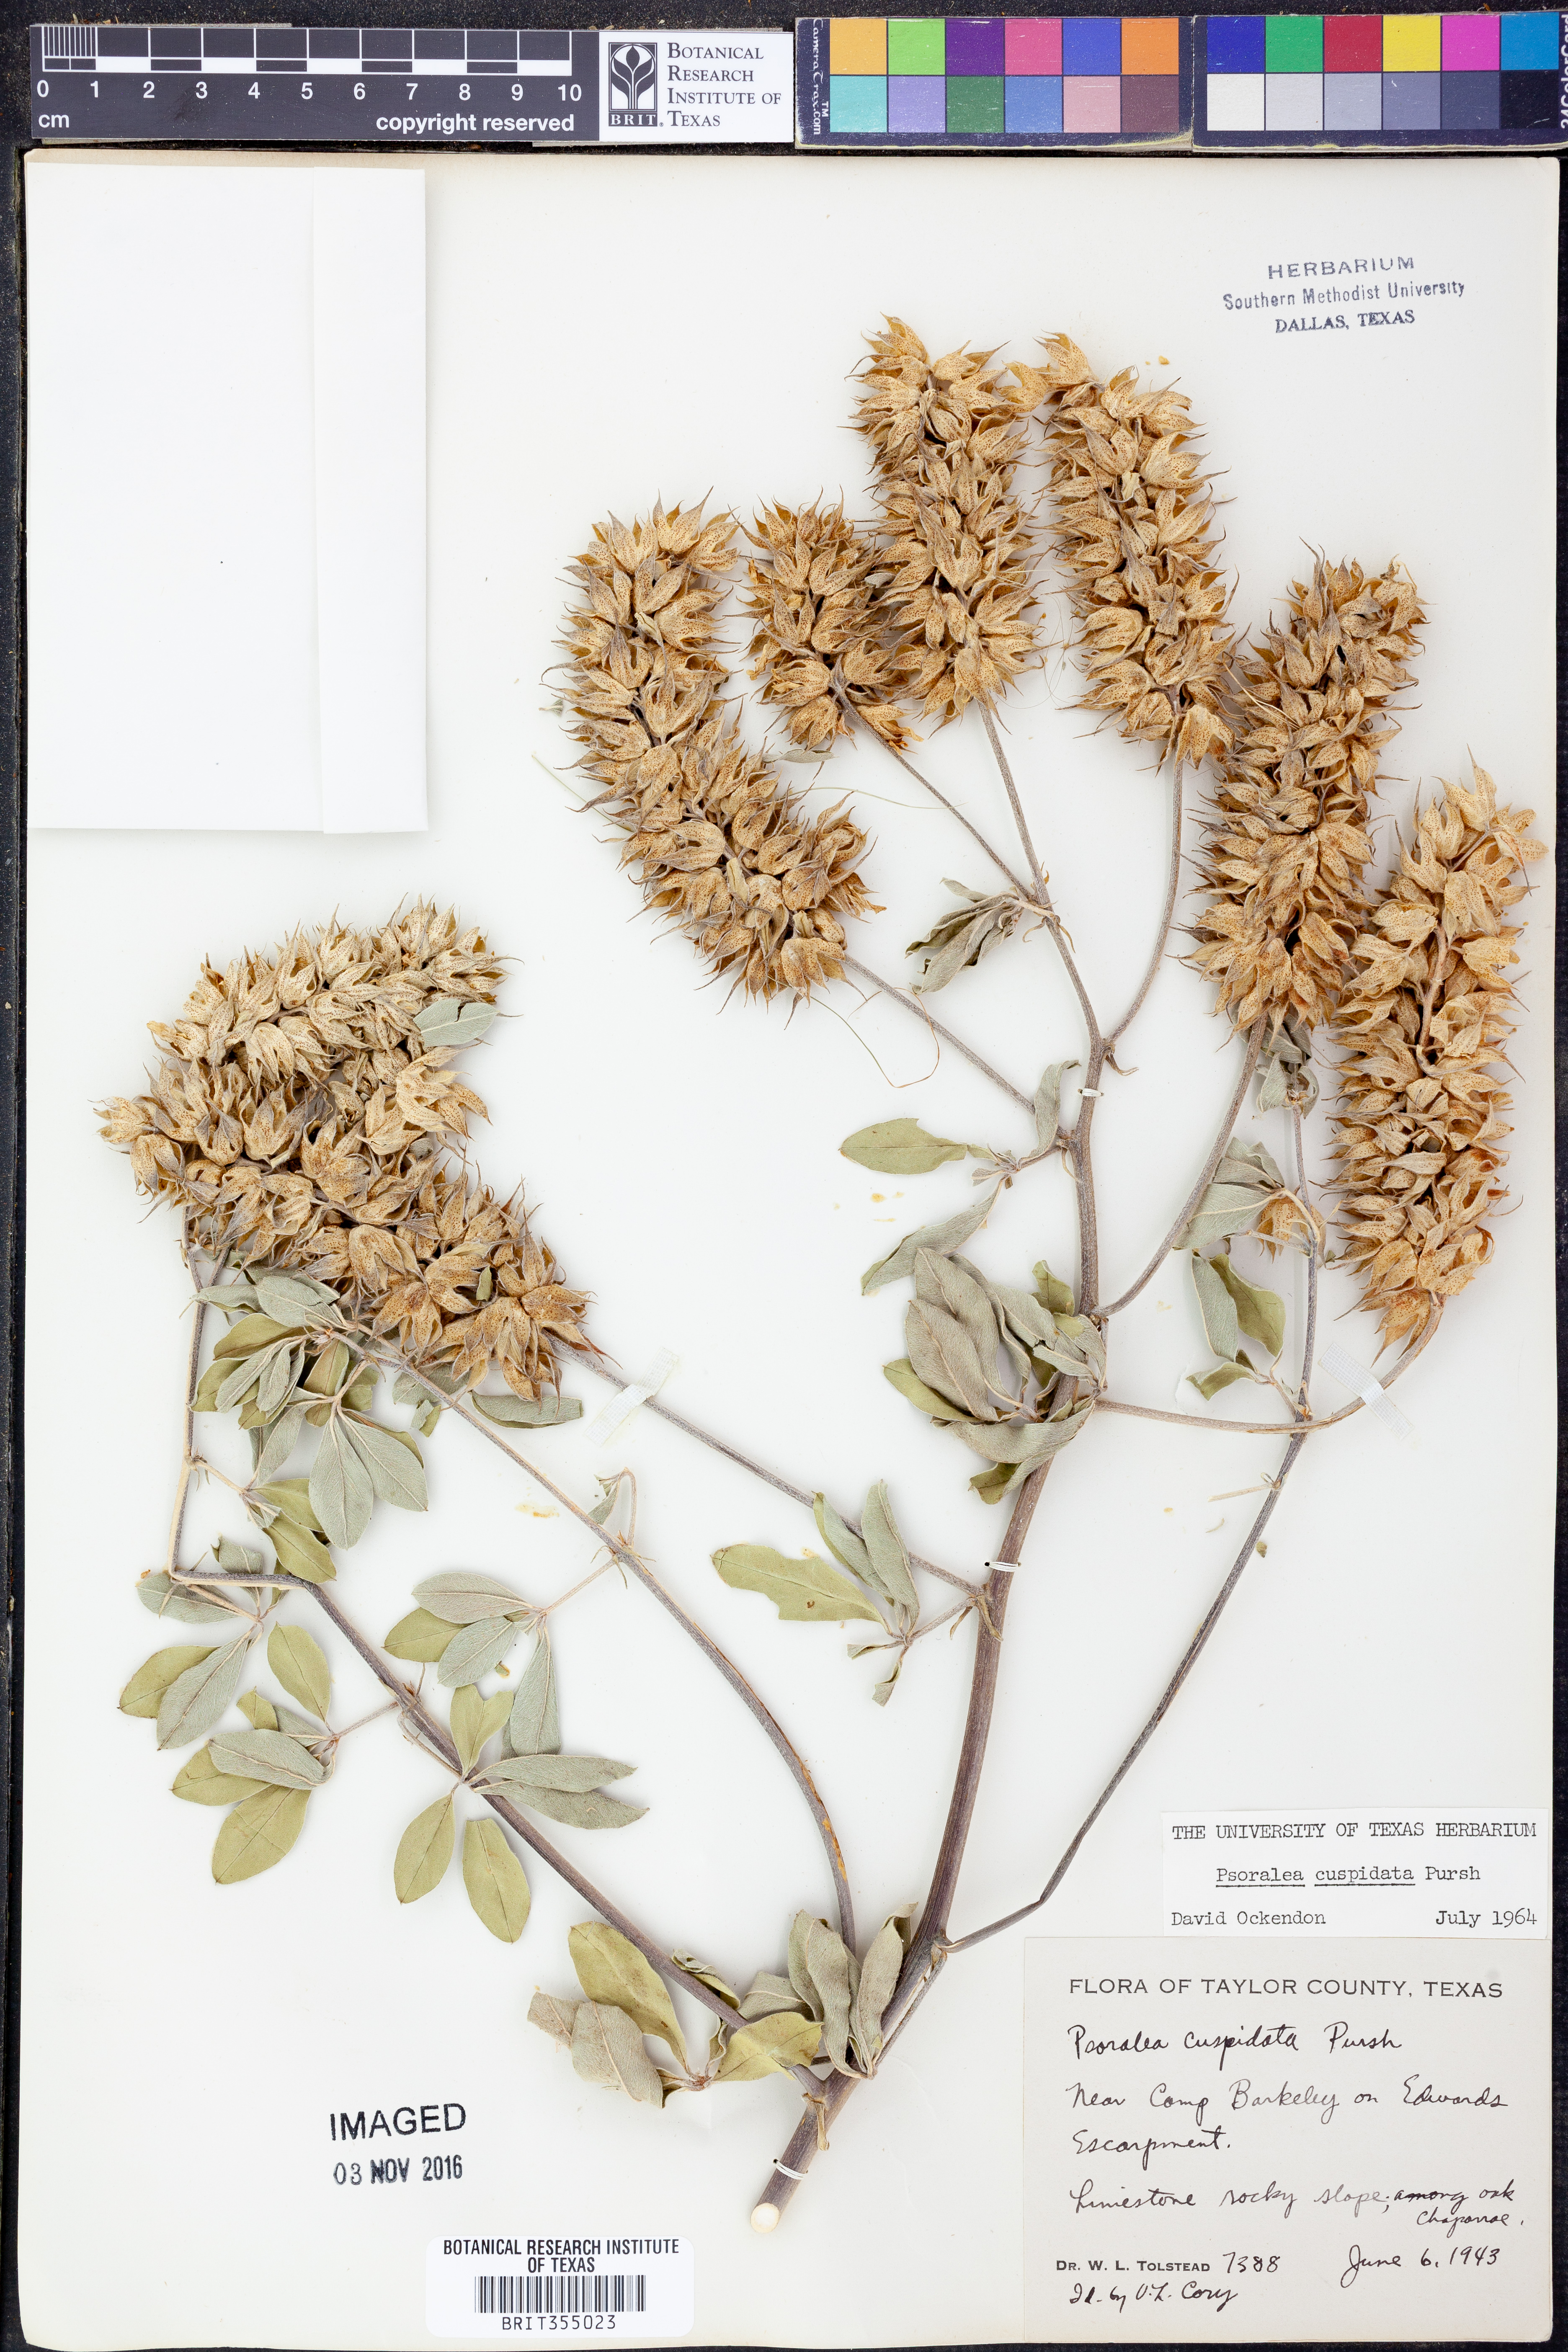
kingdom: Plantae
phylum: Tracheophyta
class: Magnoliopsida
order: Fabales
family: Fabaceae
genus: Pediomelum
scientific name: Pediomelum cuspidatum
